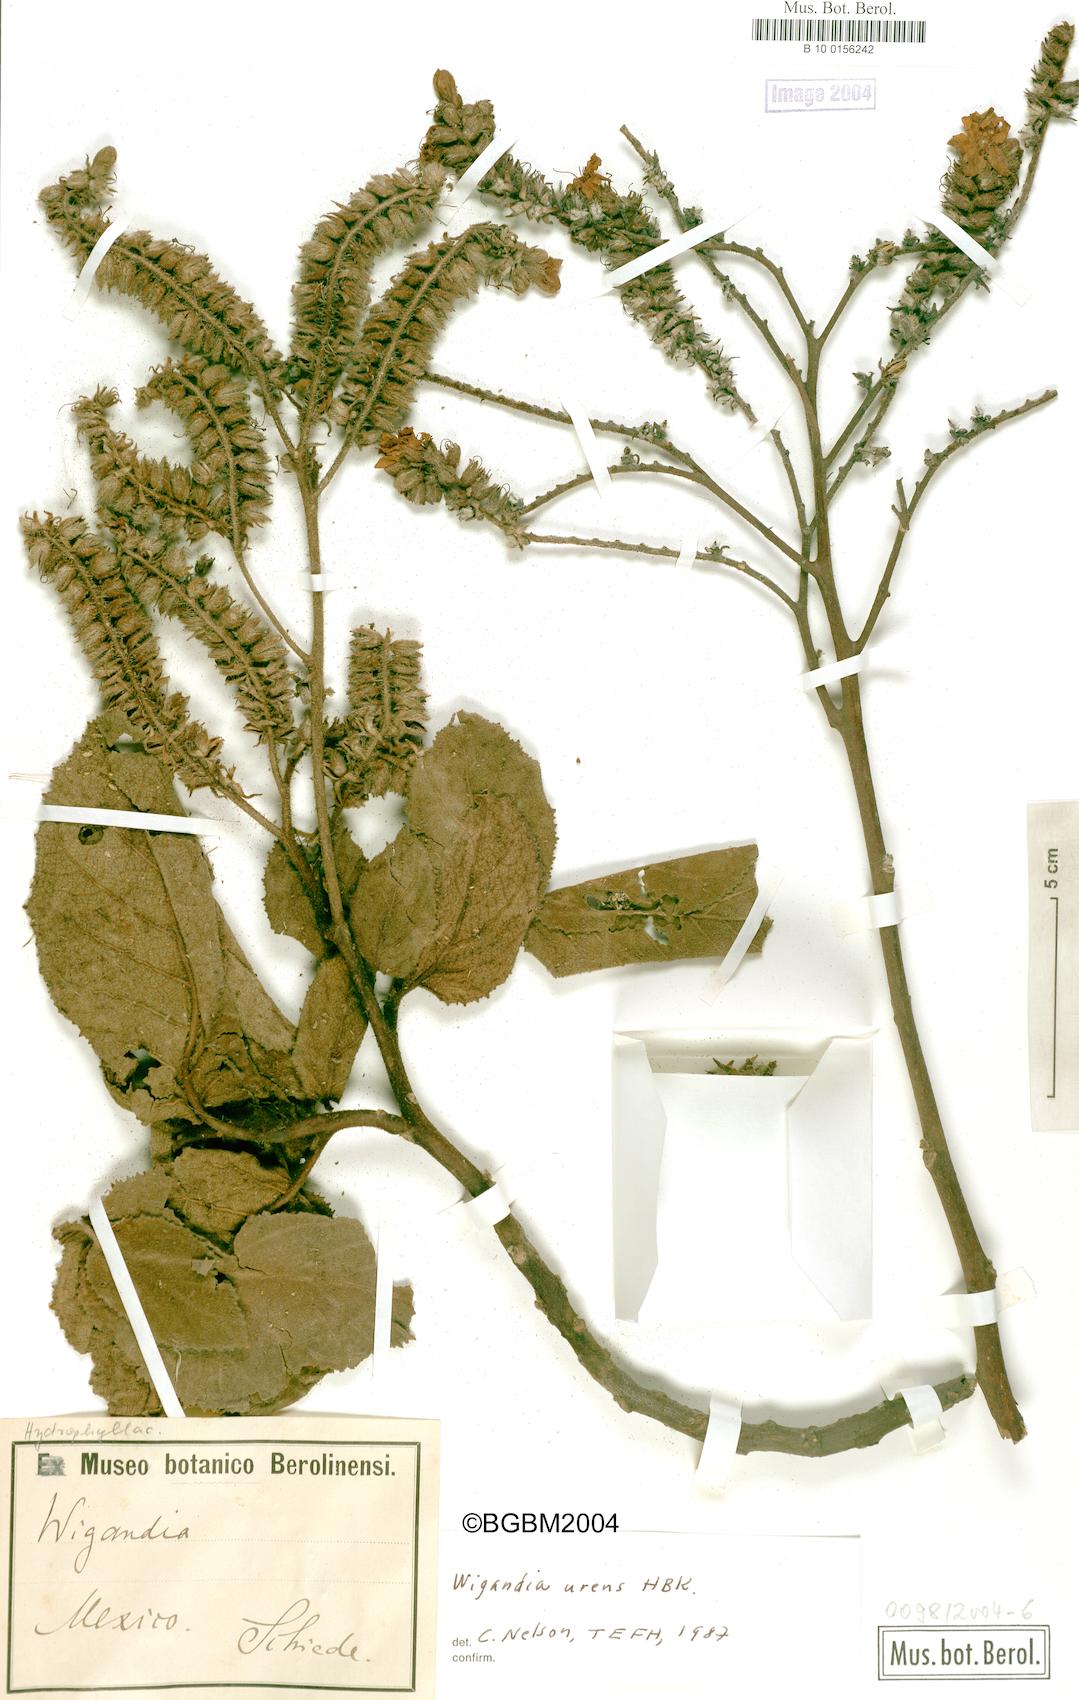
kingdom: Plantae
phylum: Tracheophyta
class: Magnoliopsida
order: Boraginales
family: Namaceae
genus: Wigandia
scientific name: Wigandia urens
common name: Caracus wigandia
